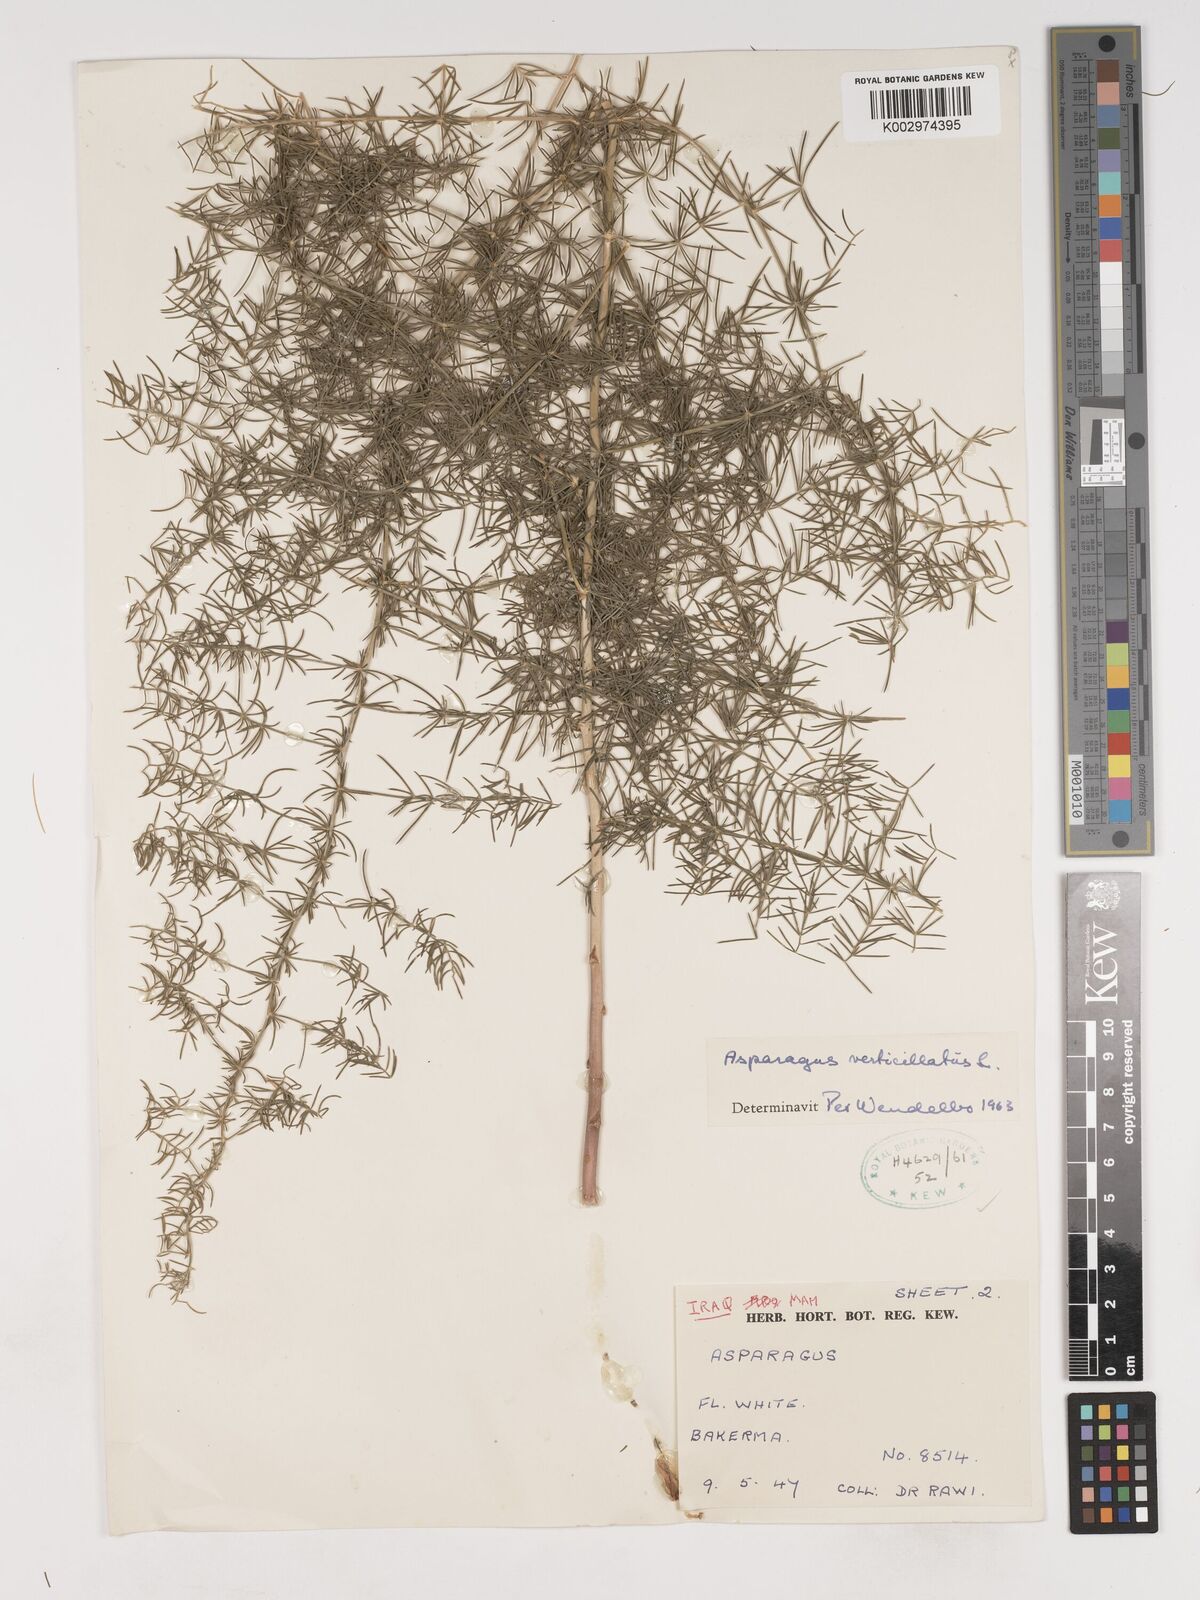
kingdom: Plantae
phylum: Tracheophyta
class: Liliopsida
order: Asparagales
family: Asparagaceae
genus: Asparagus
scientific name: Asparagus verticillatus
